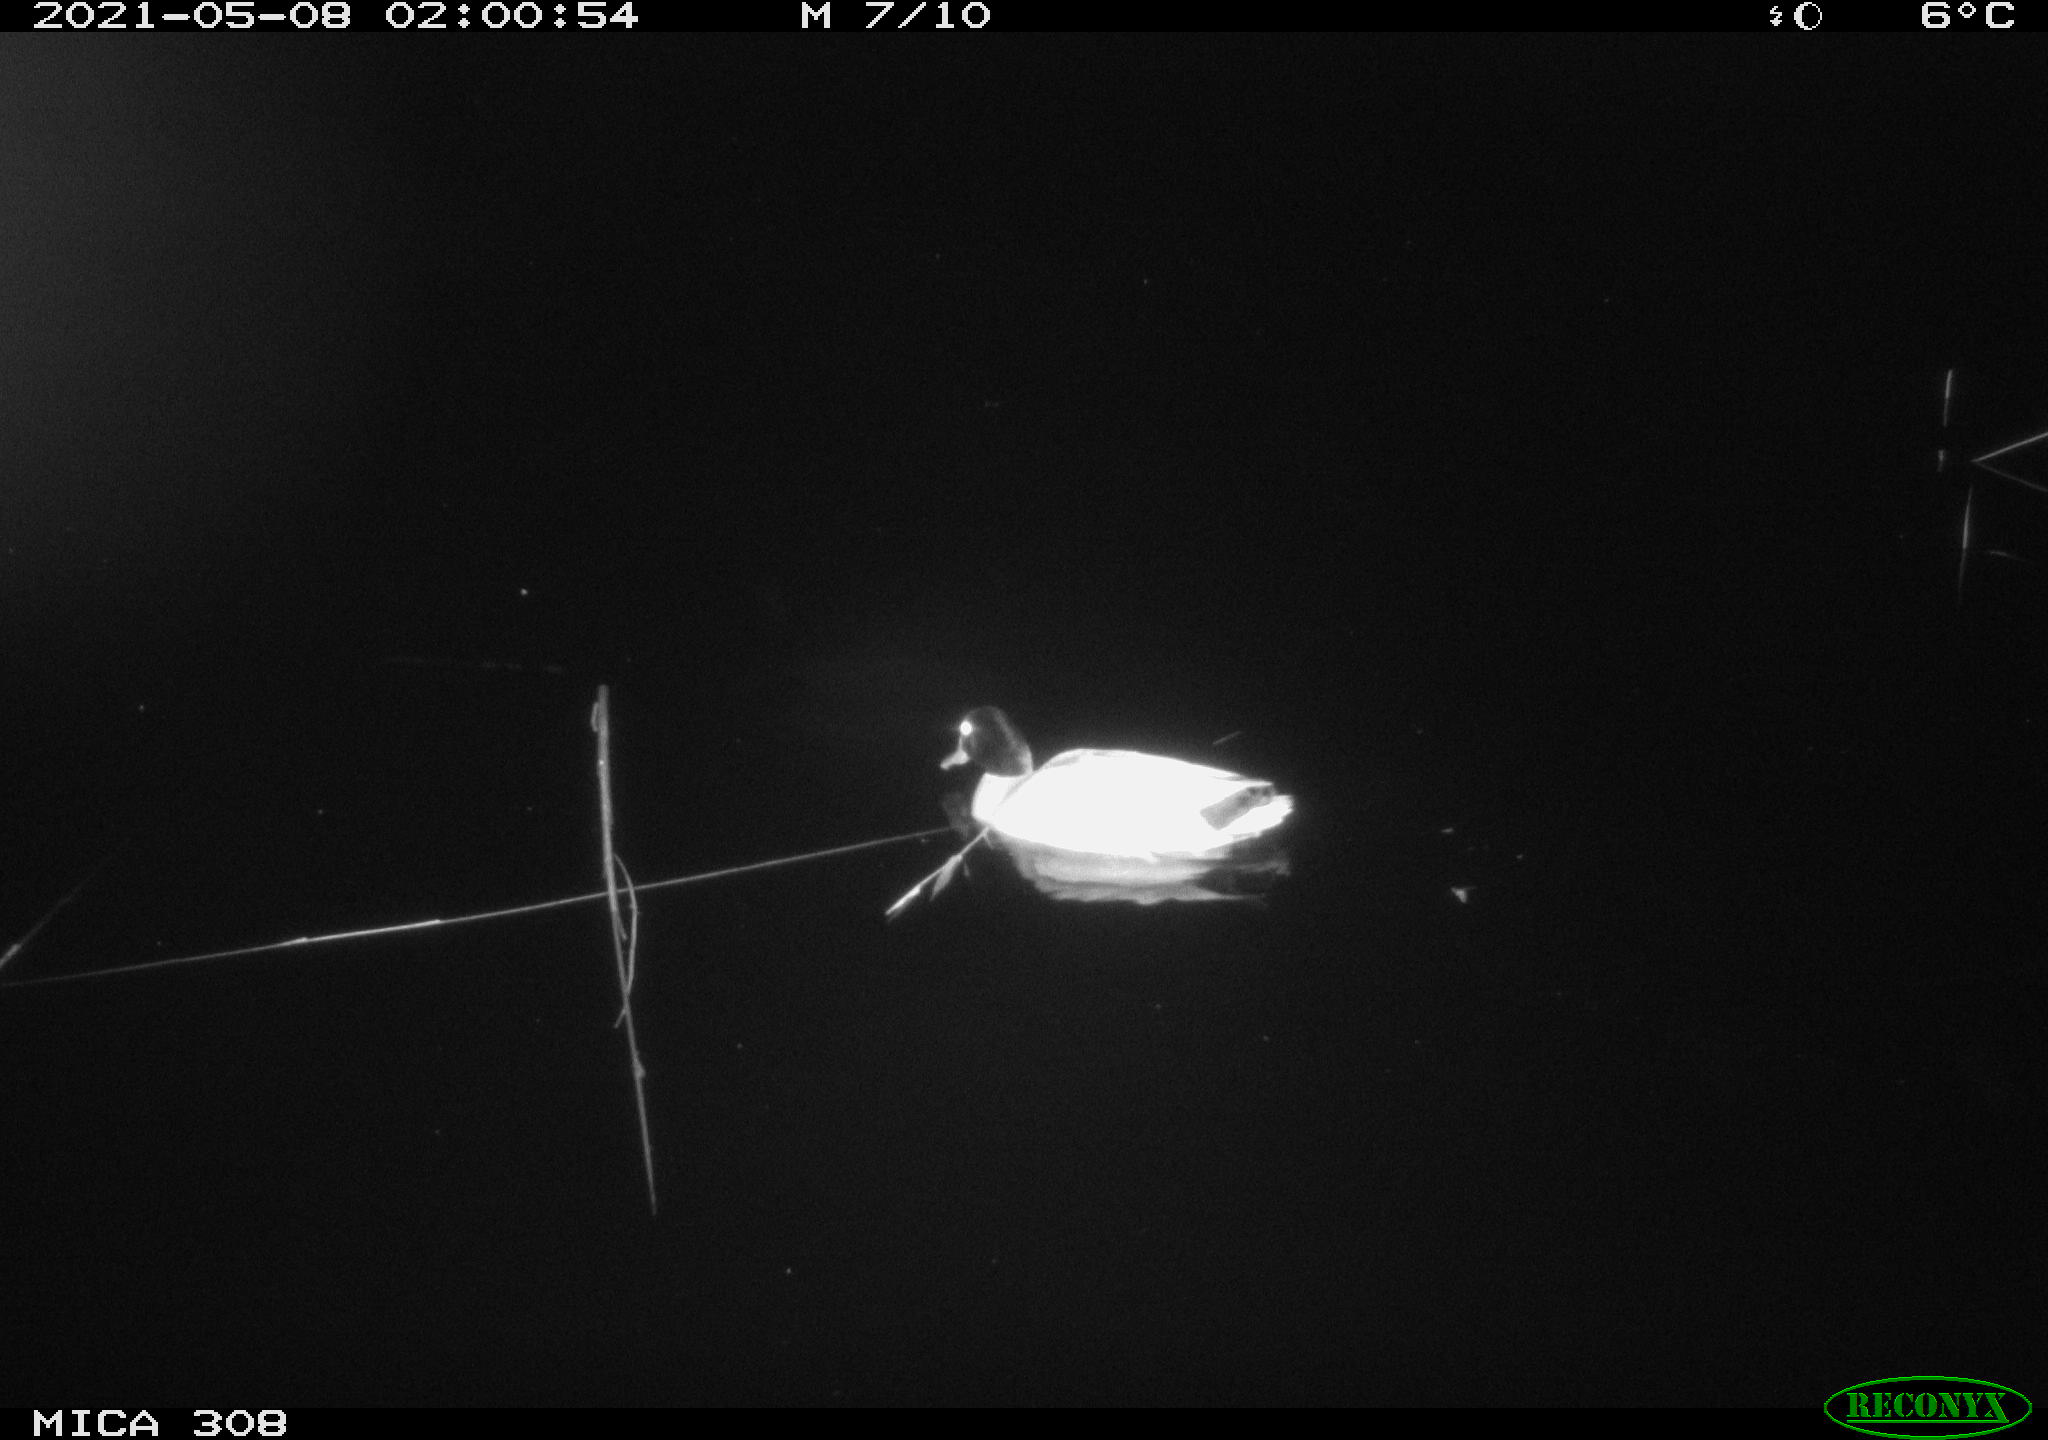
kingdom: Animalia
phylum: Chordata
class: Aves
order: Anseriformes
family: Anatidae
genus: Anas
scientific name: Anas platyrhynchos
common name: Mallard
